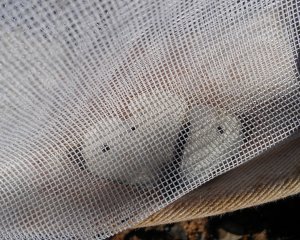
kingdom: Animalia
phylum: Arthropoda
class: Insecta
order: Lepidoptera
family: Pieridae
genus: Pieris
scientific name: Pieris rapae
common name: Cabbage White
